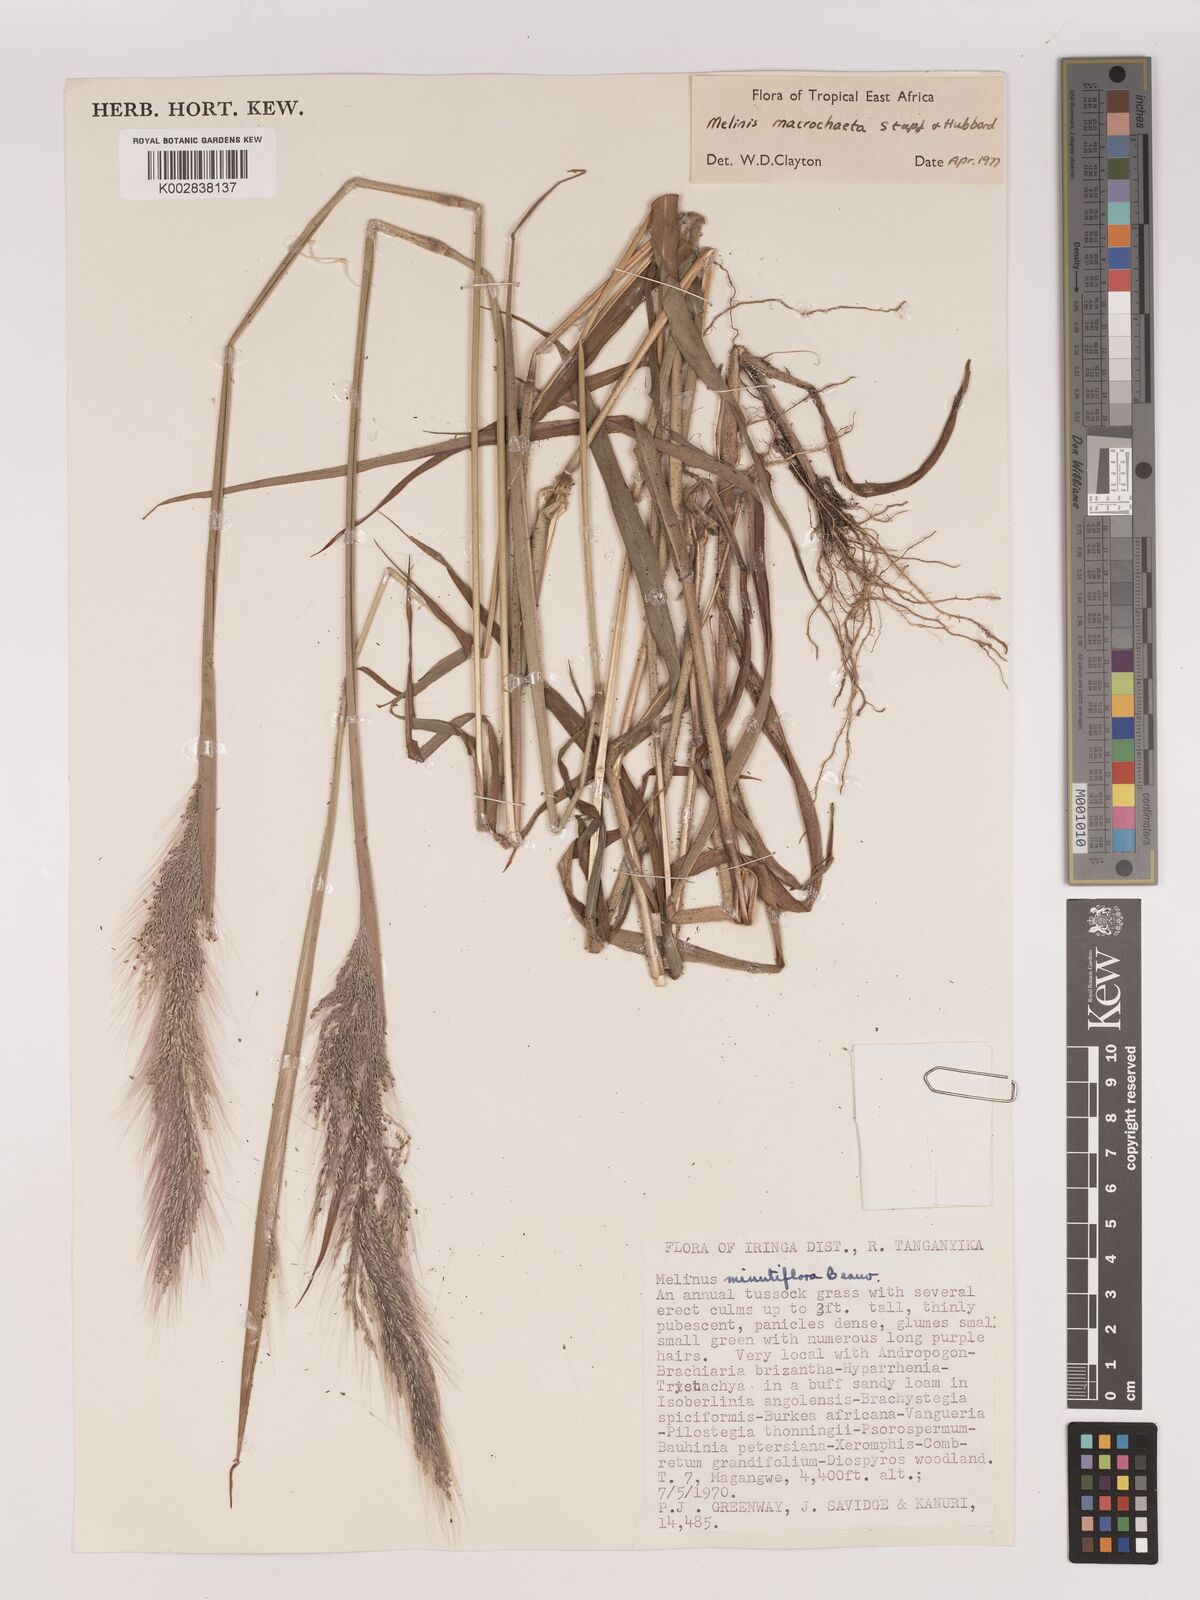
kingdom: Plantae
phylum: Tracheophyta
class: Liliopsida
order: Poales
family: Poaceae
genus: Melinis
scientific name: Melinis macrochaeta
